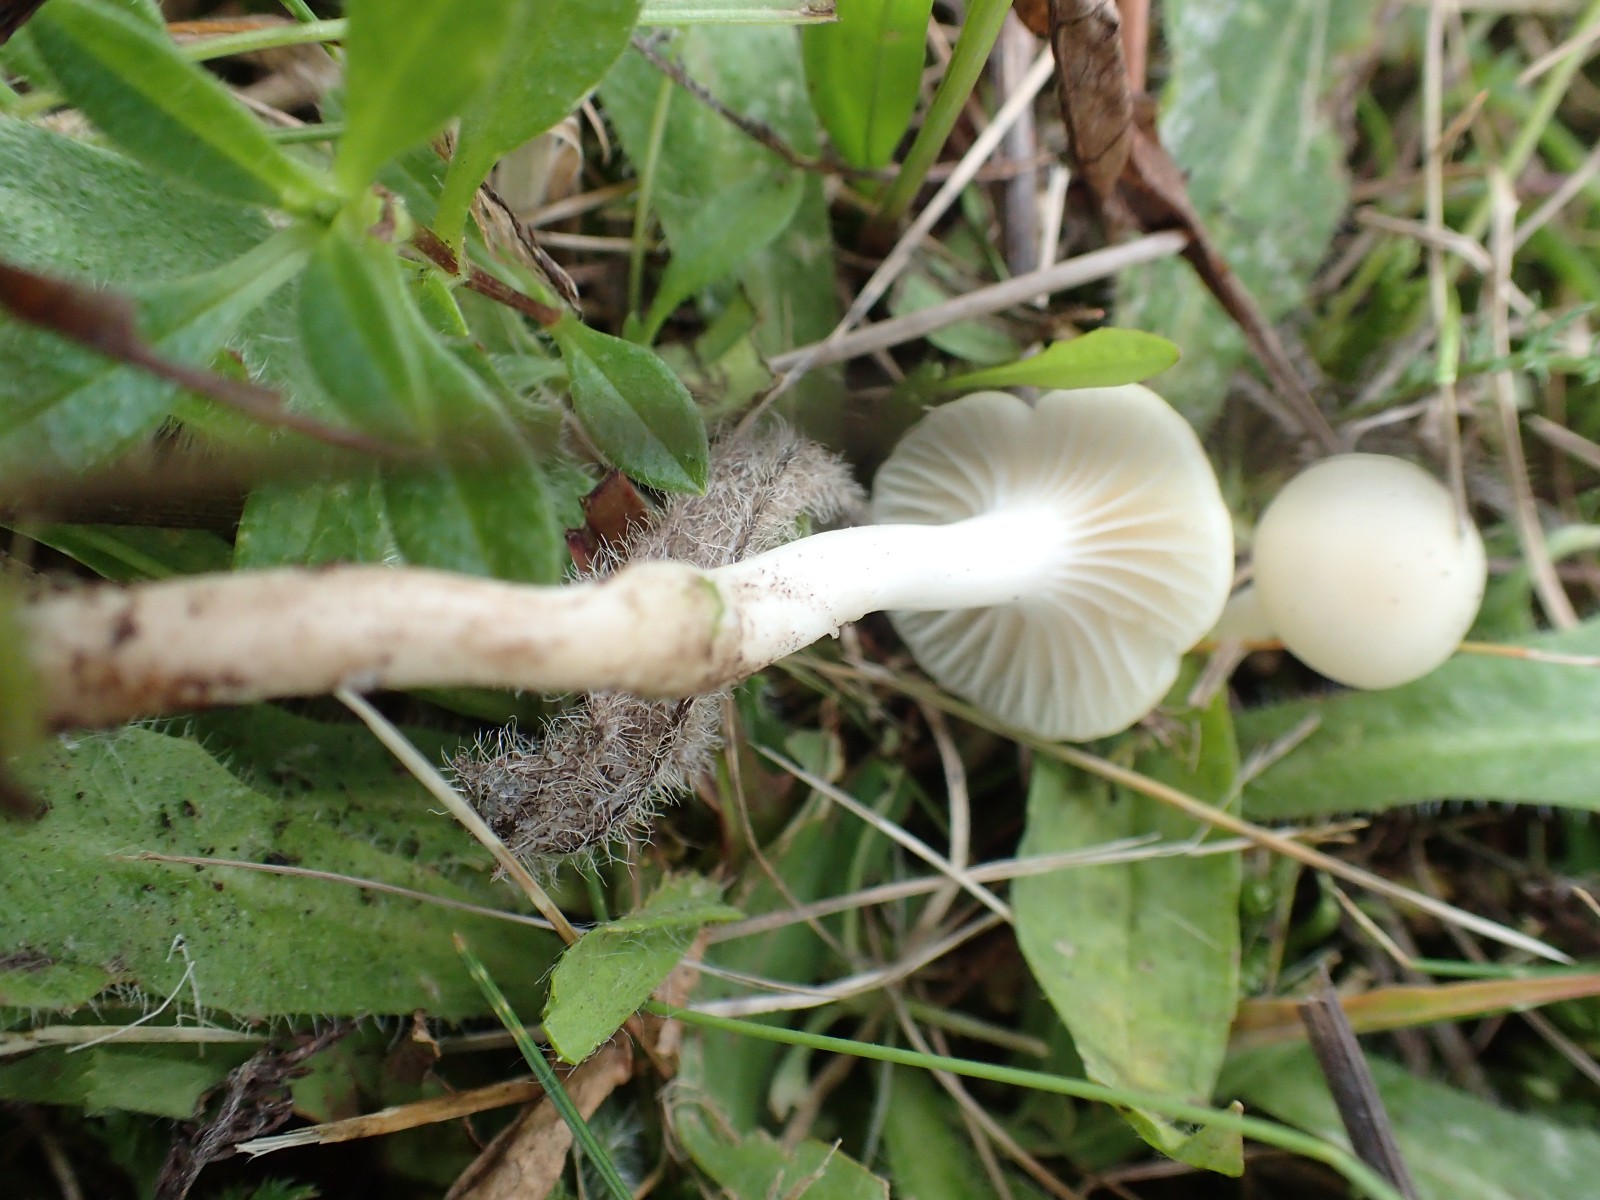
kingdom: Fungi
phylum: Basidiomycota
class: Agaricomycetes
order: Agaricales
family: Hygrophoraceae
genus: Cuphophyllus
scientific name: Cuphophyllus virgineus
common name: snehvid vokshat
